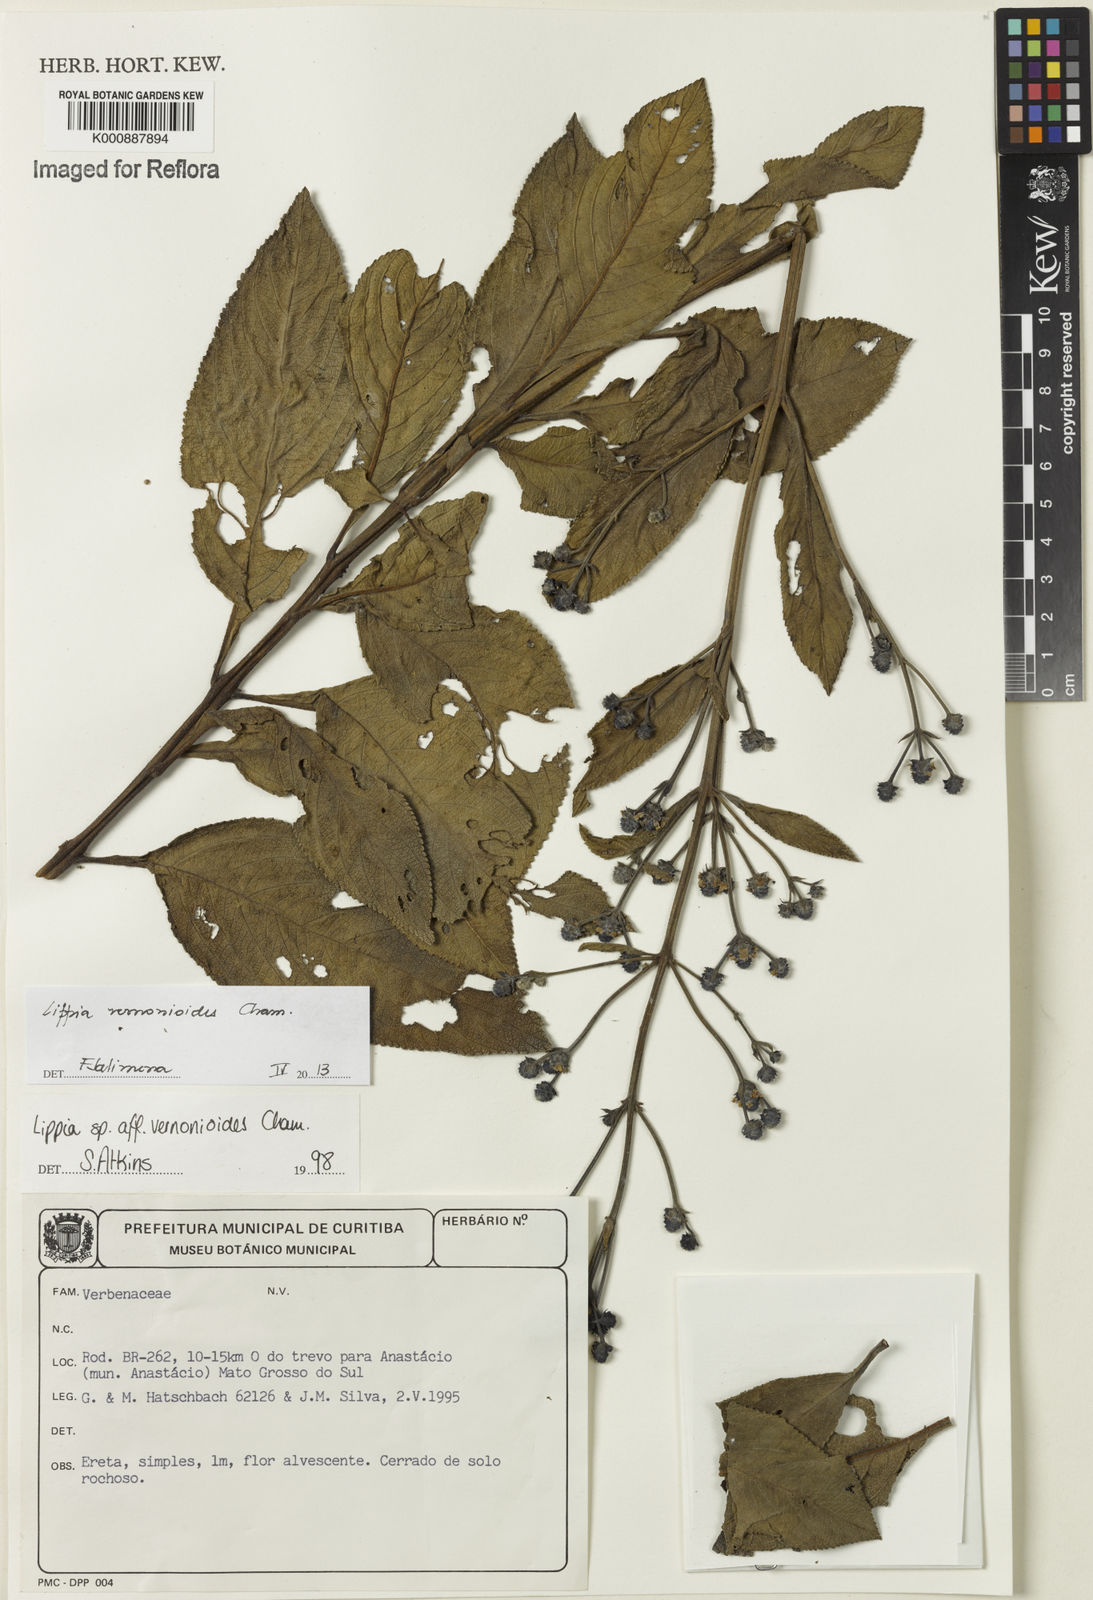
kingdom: Plantae
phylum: Tracheophyta
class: Magnoliopsida
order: Lamiales
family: Verbenaceae
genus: Lippia
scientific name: Lippia vernonioides
